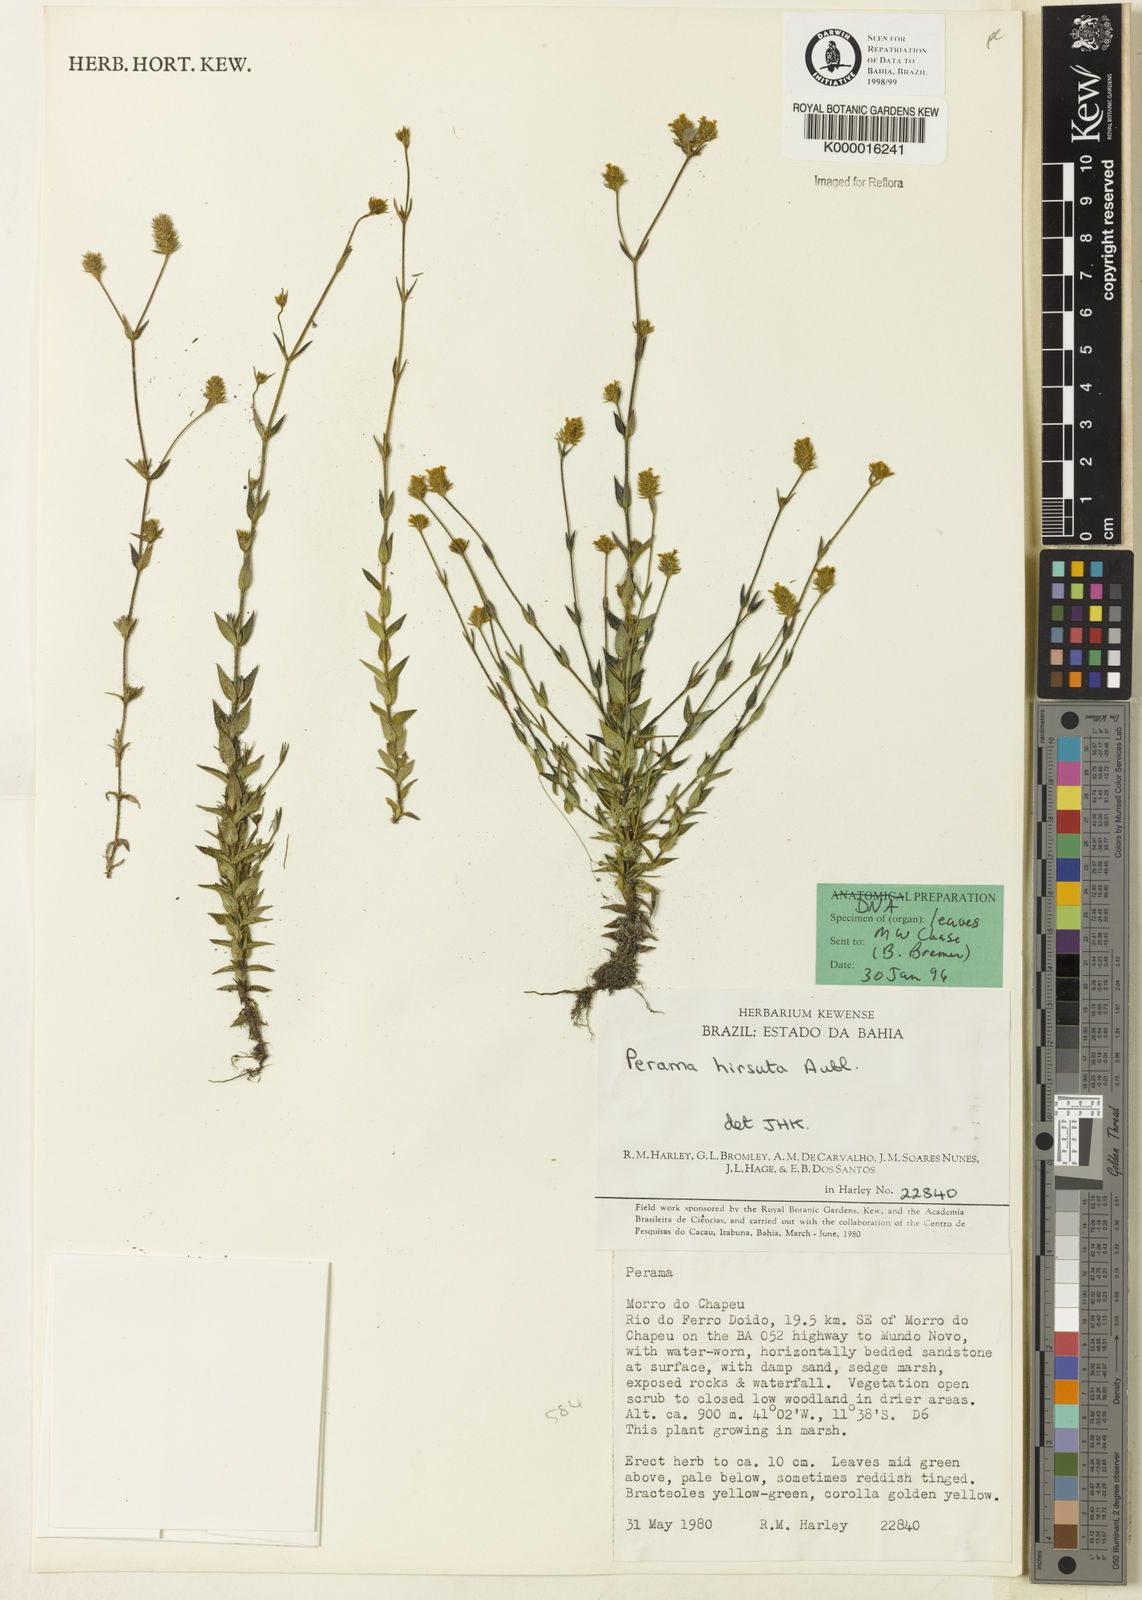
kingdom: Plantae
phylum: Tracheophyta
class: Magnoliopsida
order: Gentianales
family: Rubiaceae
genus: Perama
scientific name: Perama hirsuta
